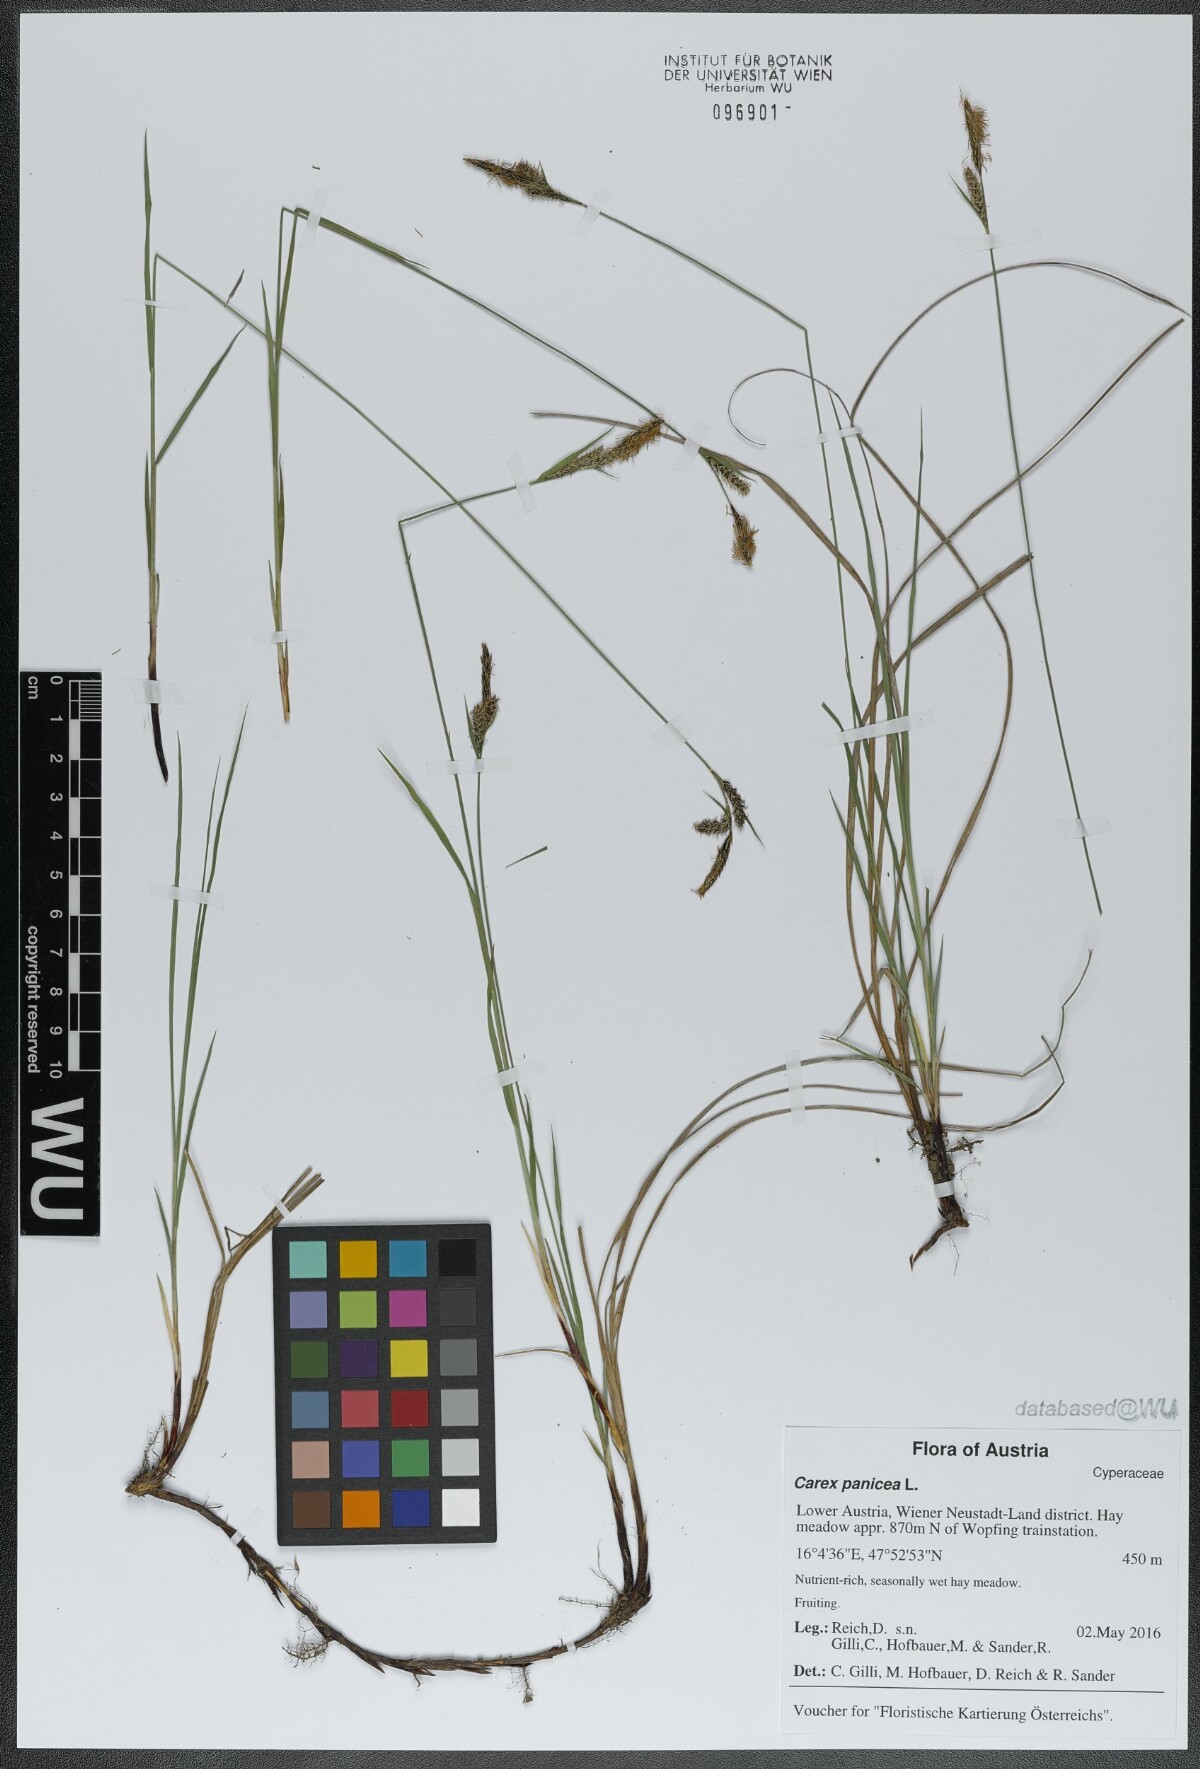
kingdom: Plantae
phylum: Tracheophyta
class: Liliopsida
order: Poales
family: Cyperaceae
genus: Carex
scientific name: Carex panicea
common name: Carnation sedge
